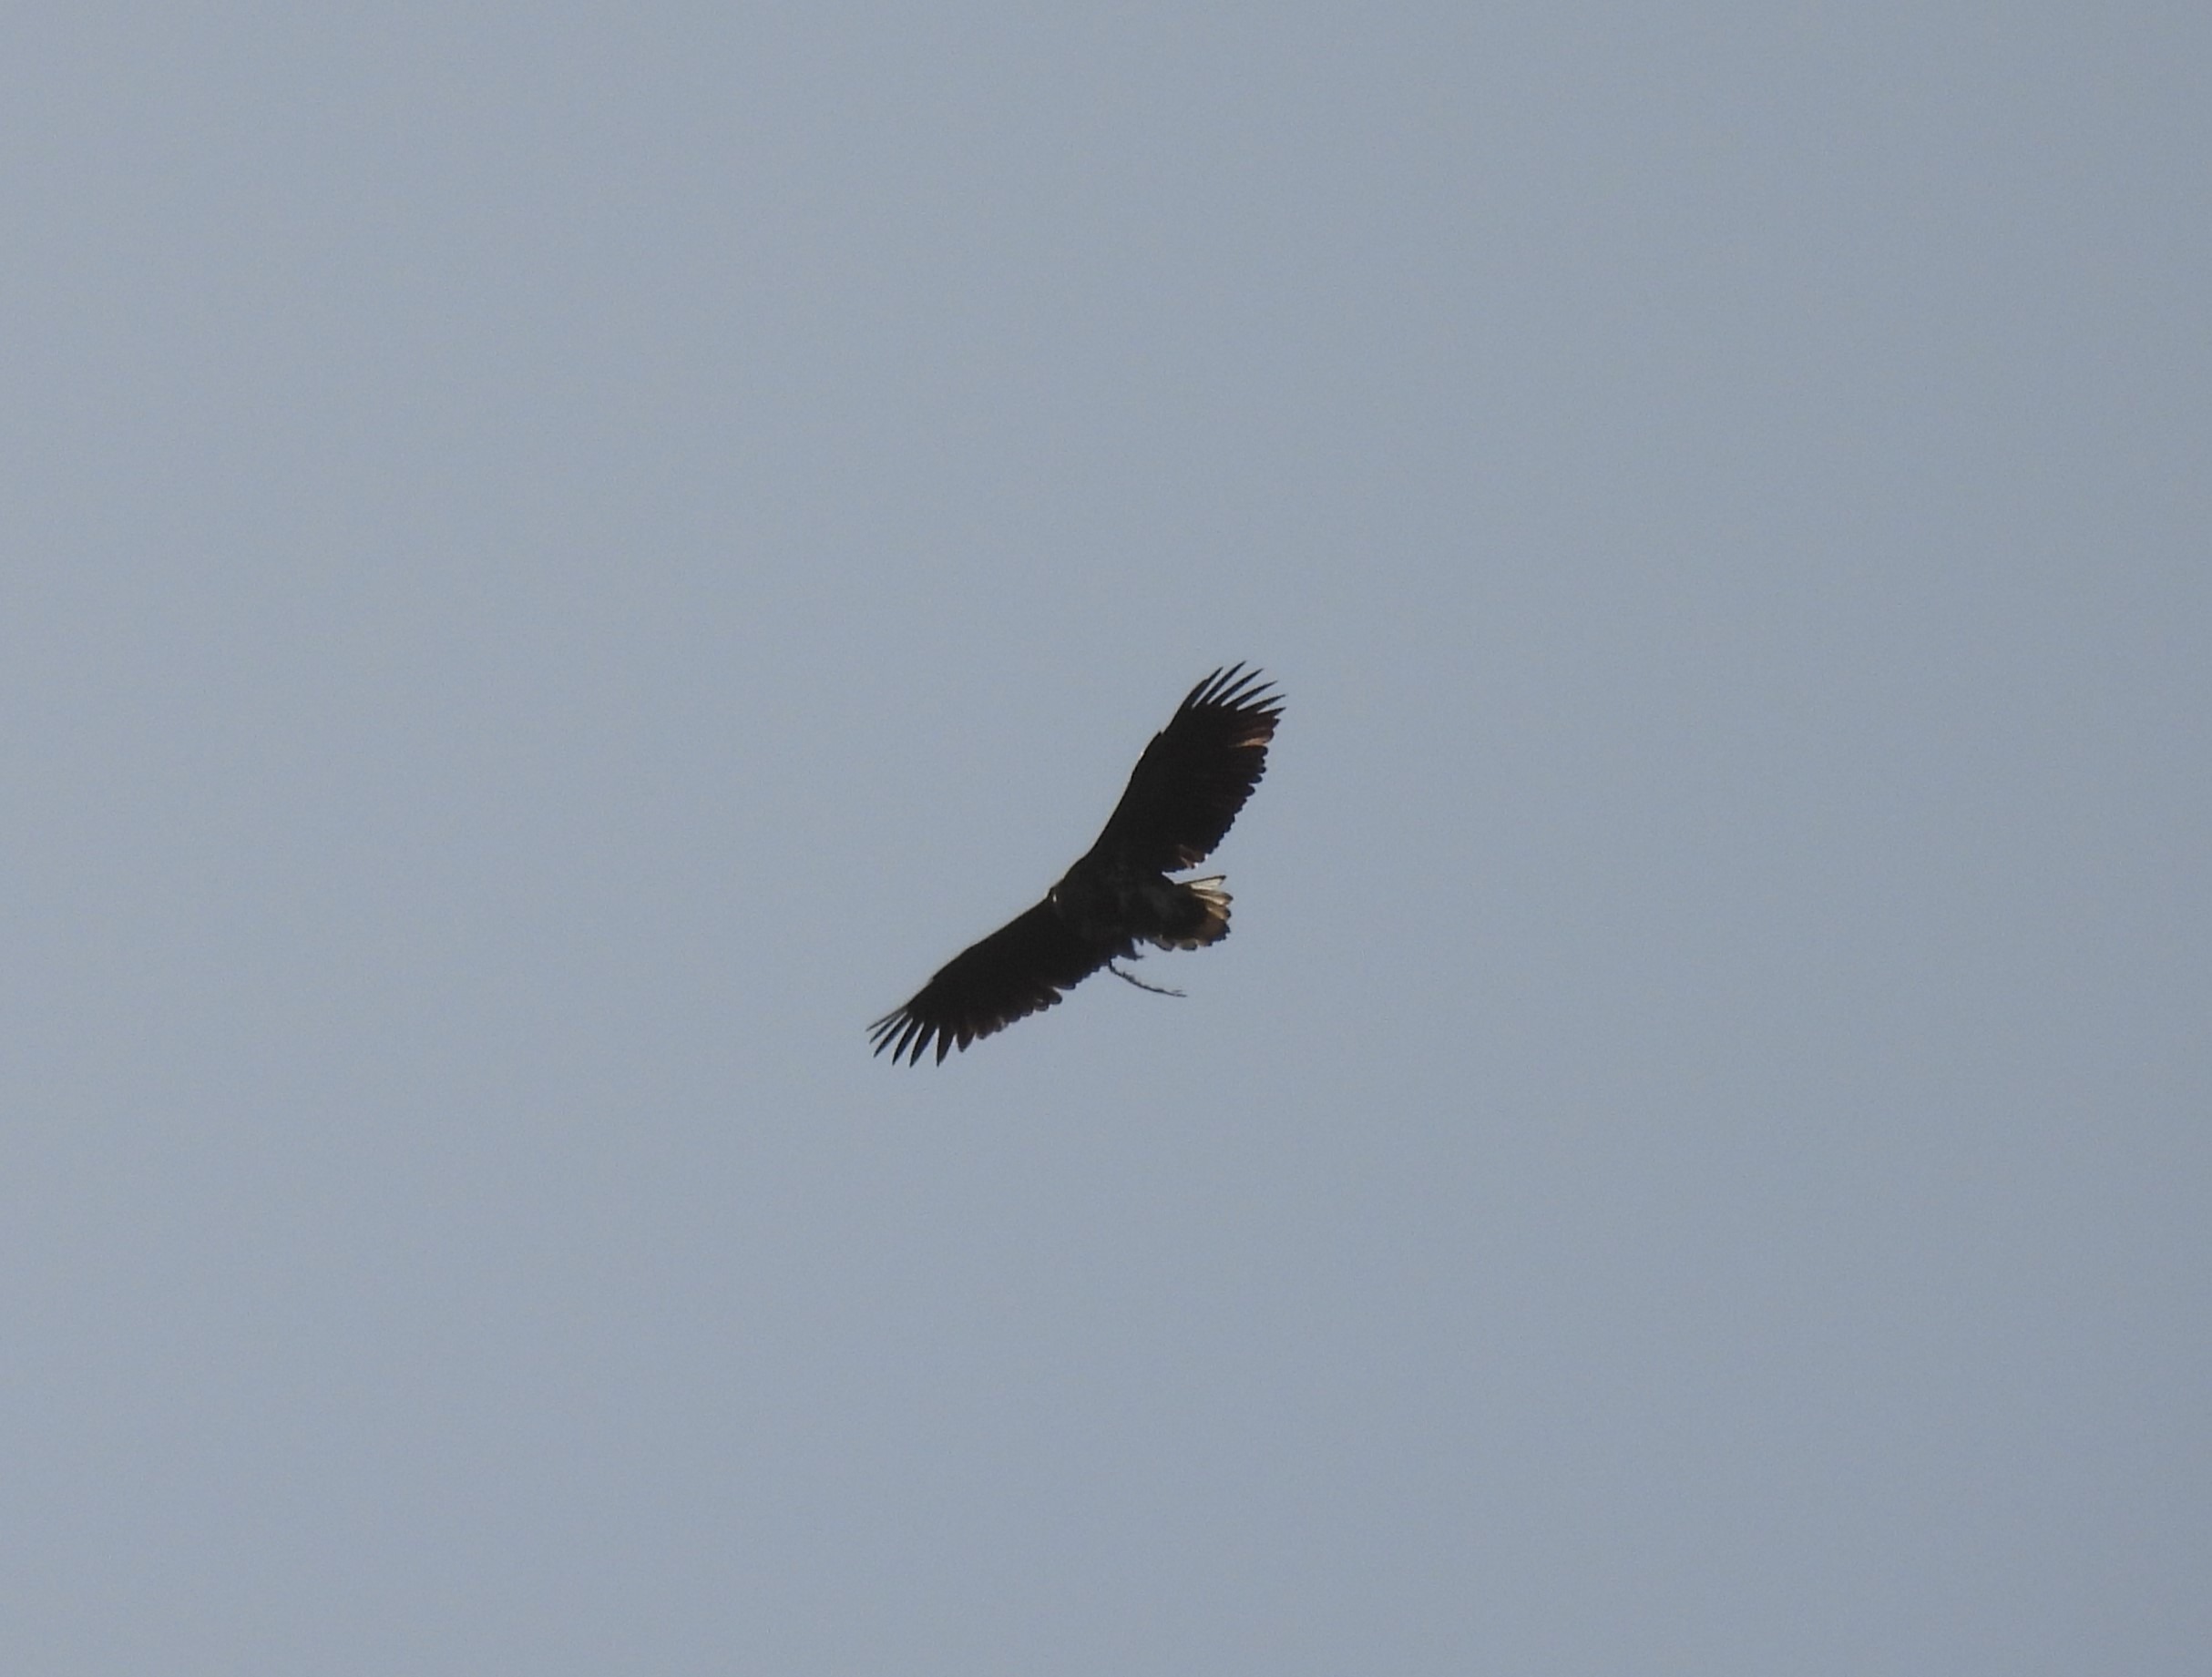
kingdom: Animalia
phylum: Chordata
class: Aves
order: Accipitriformes
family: Accipitridae
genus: Haliaeetus
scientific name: Haliaeetus albicilla
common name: Havørn
